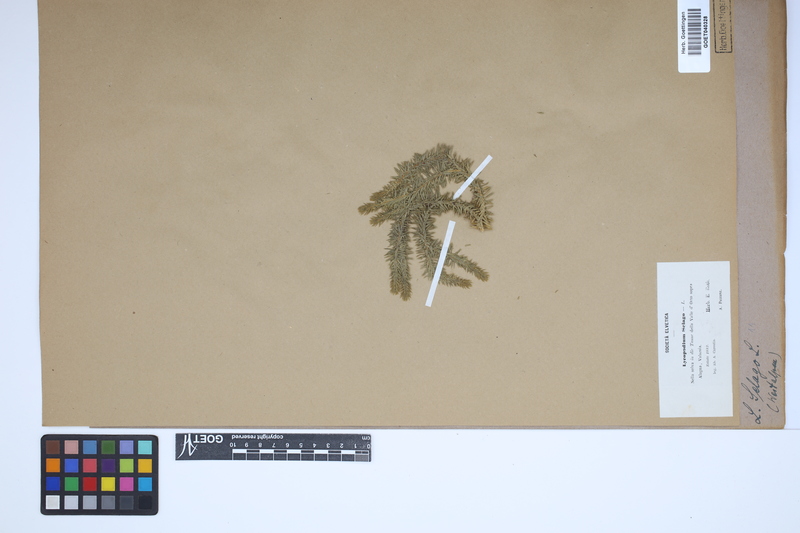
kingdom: Plantae
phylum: Tracheophyta
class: Lycopodiopsida
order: Lycopodiales
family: Lycopodiaceae
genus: Huperzia
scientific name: Huperzia selago
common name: Northern firmoss
